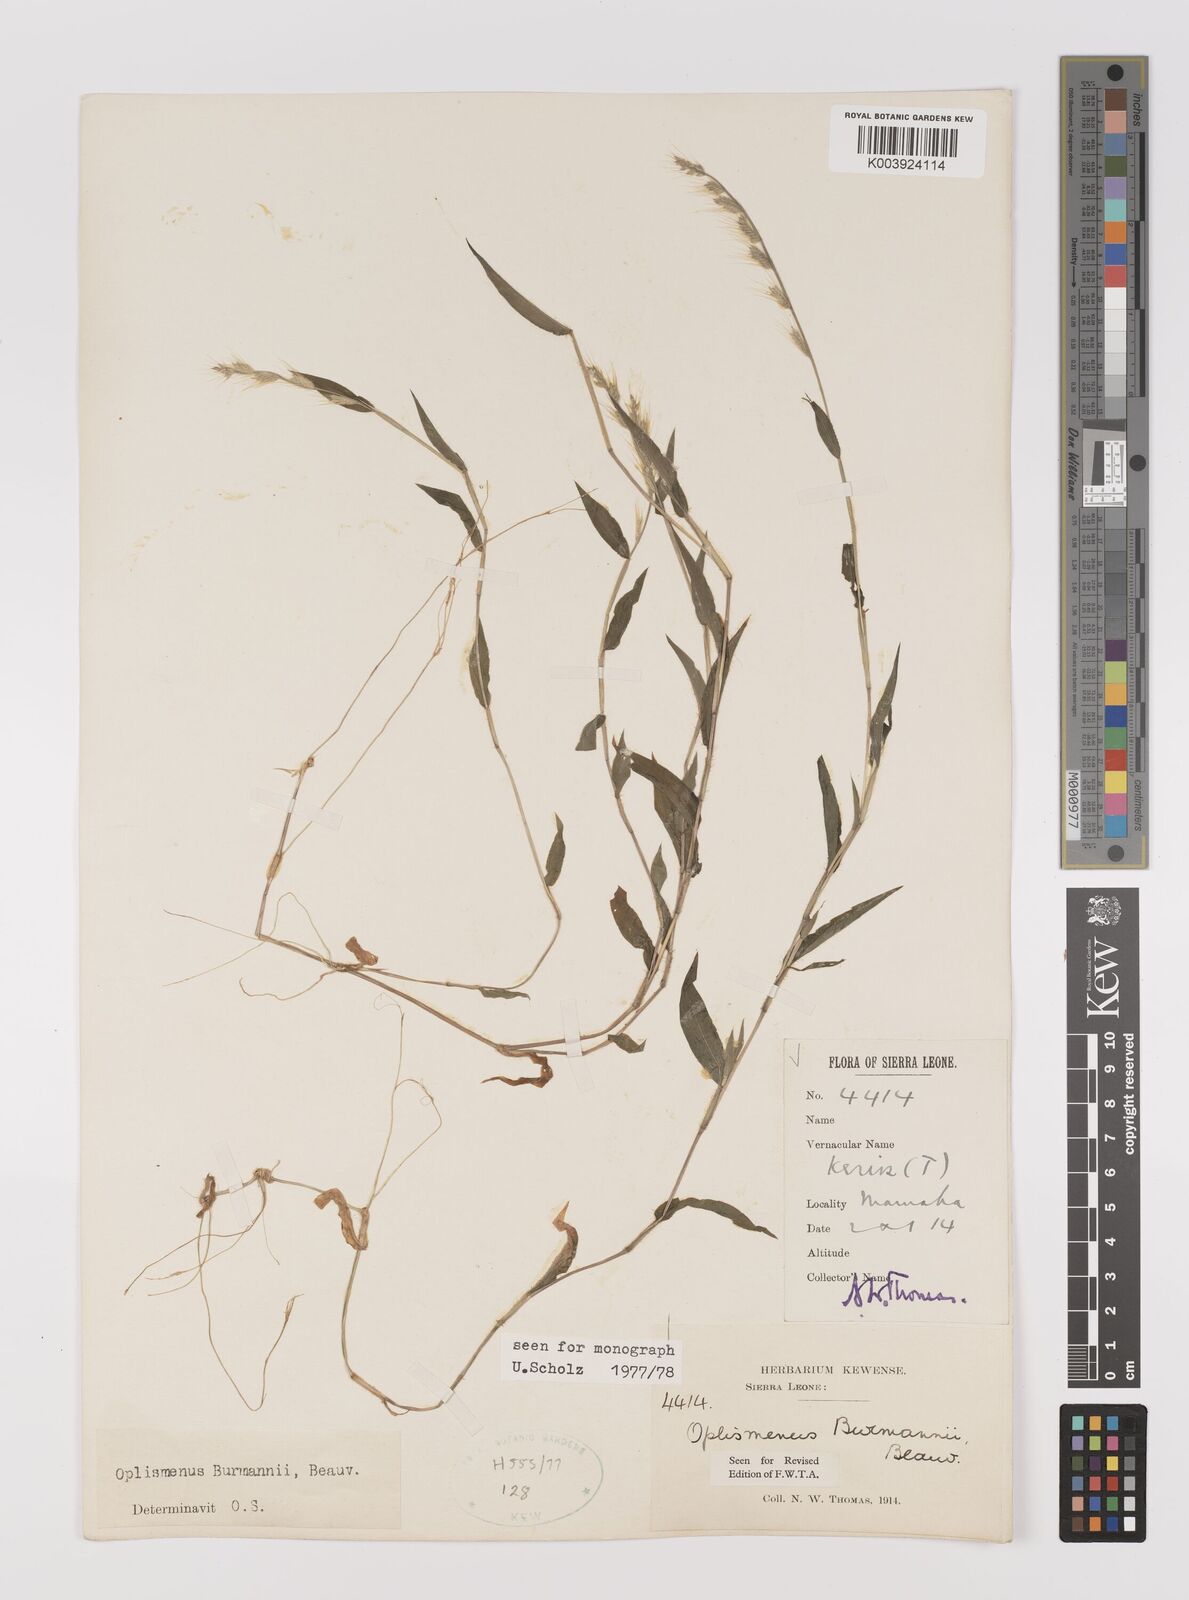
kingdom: Plantae
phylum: Tracheophyta
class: Liliopsida
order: Poales
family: Poaceae
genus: Oplismenus
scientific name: Oplismenus burmanni
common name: Burmann's basketgrass
